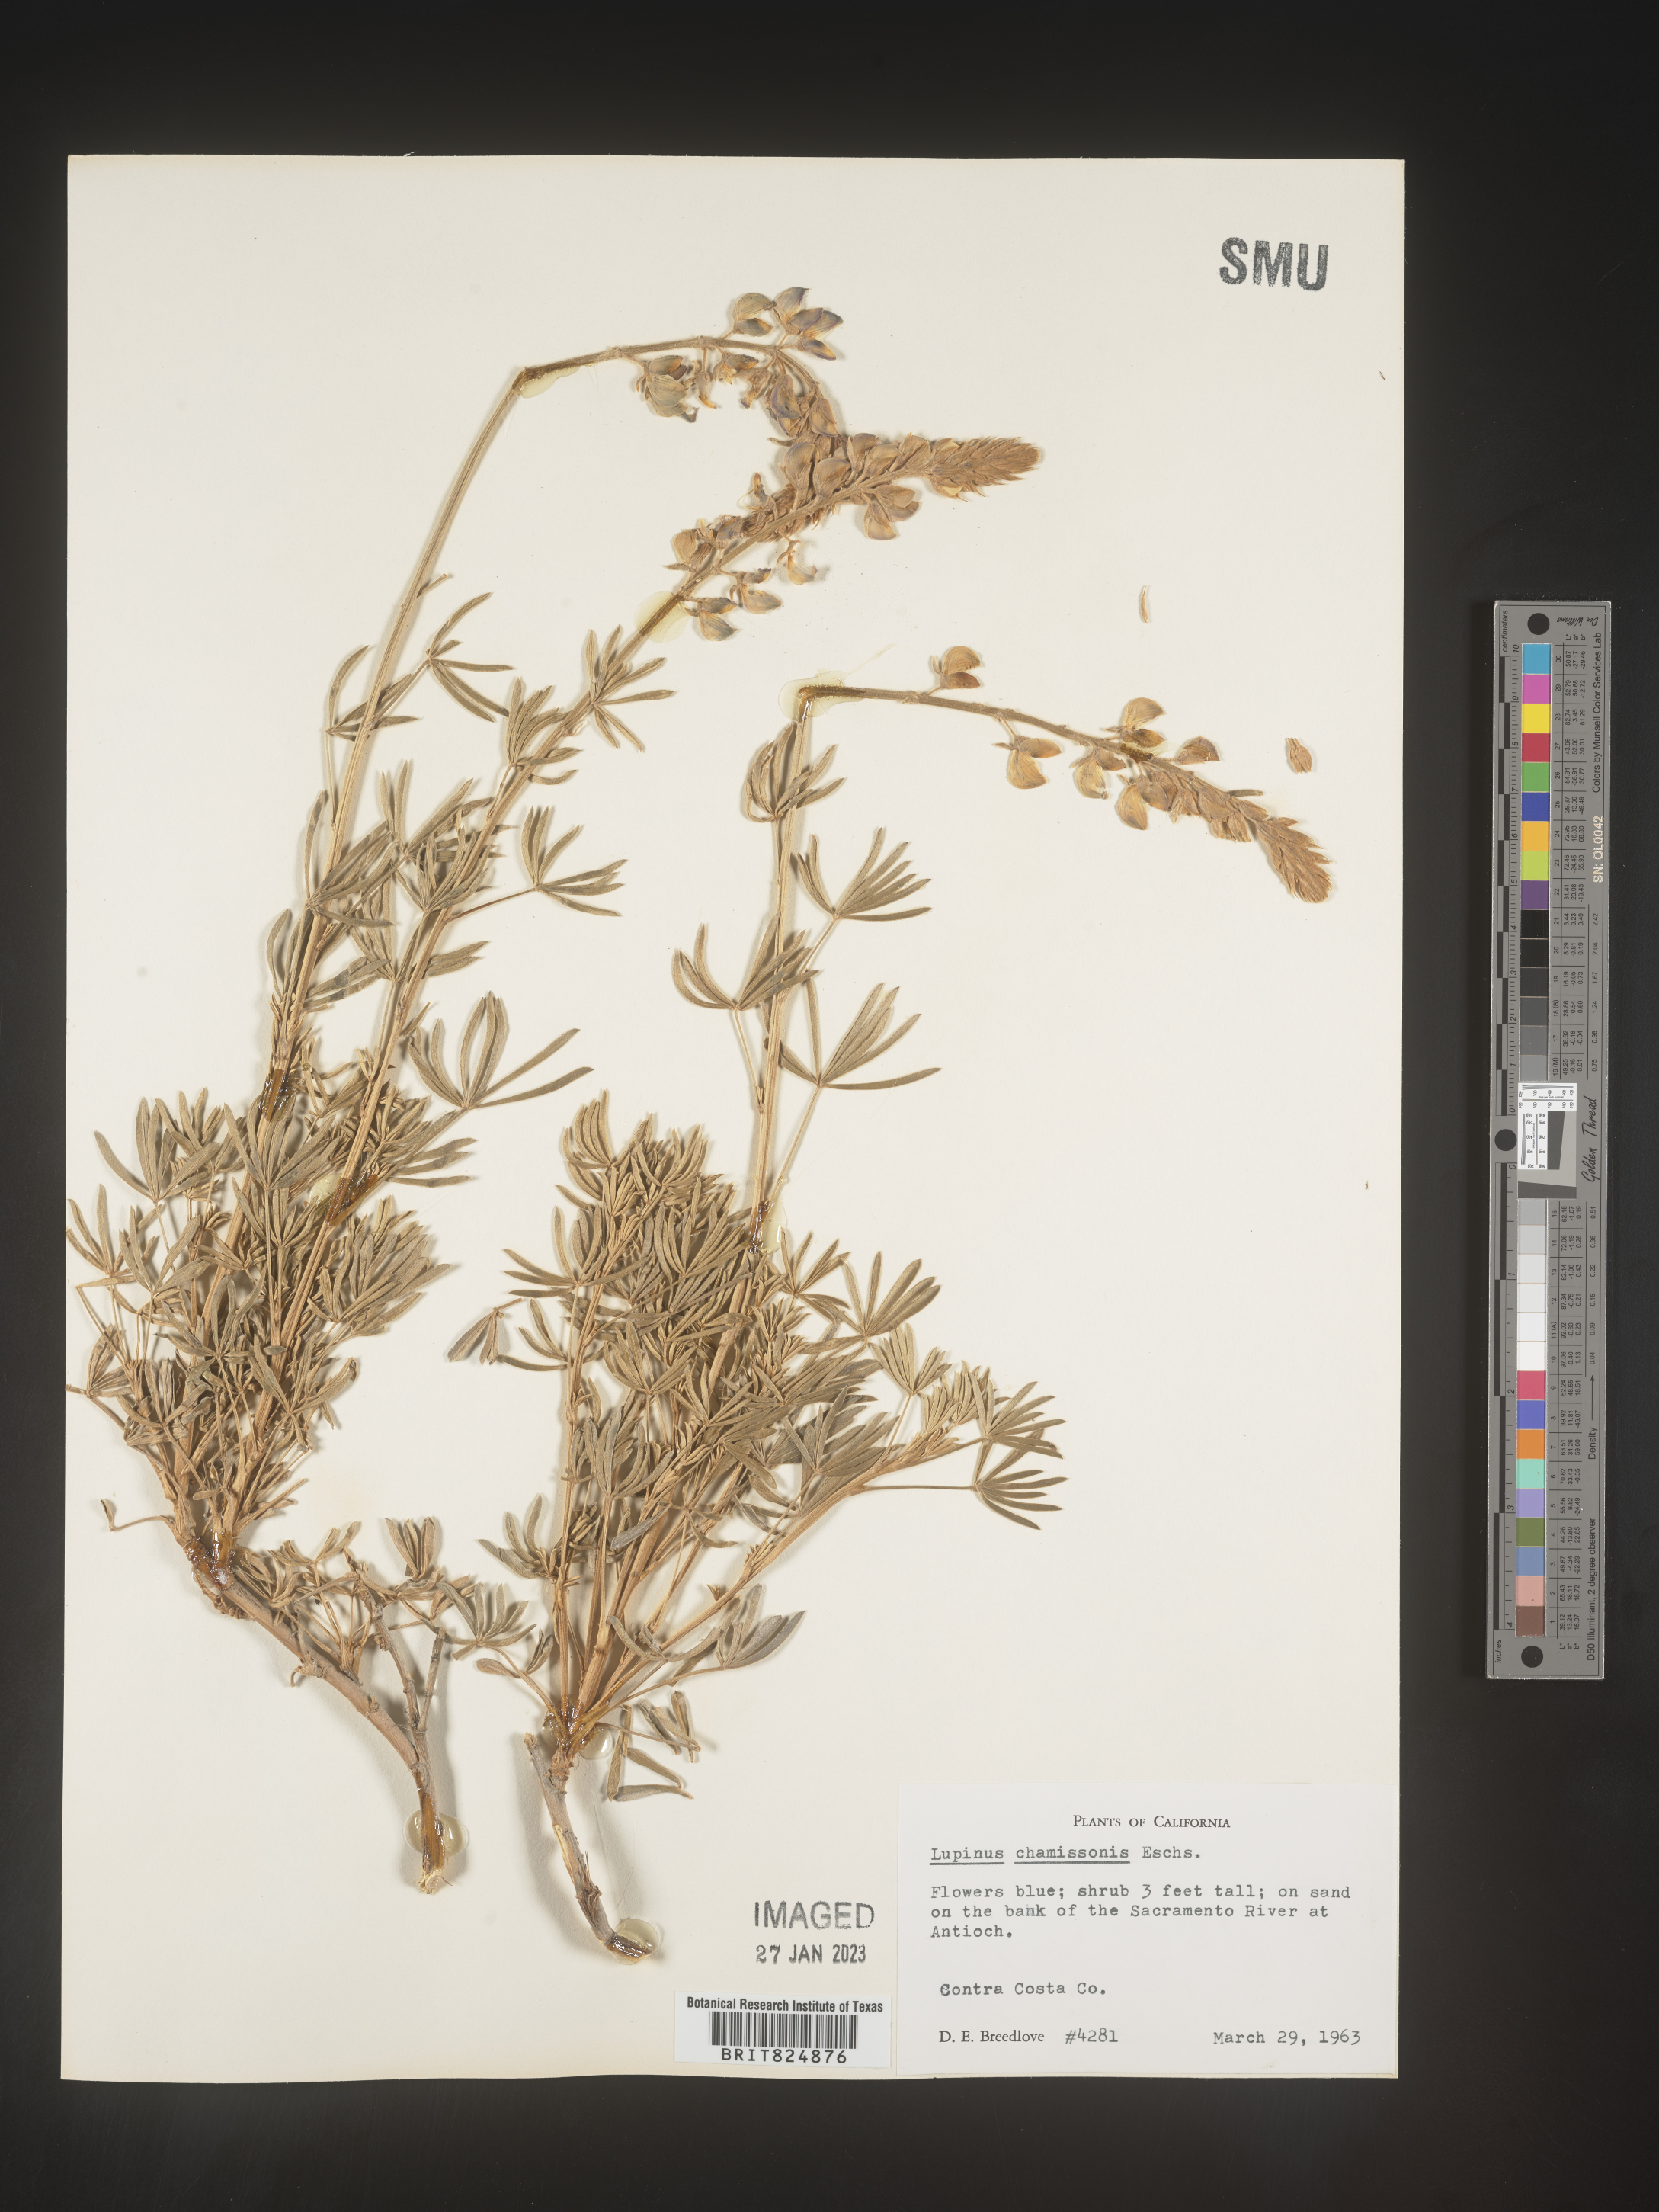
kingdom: Plantae
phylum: Tracheophyta
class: Magnoliopsida
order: Fabales
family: Fabaceae
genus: Lupinus
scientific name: Lupinus
